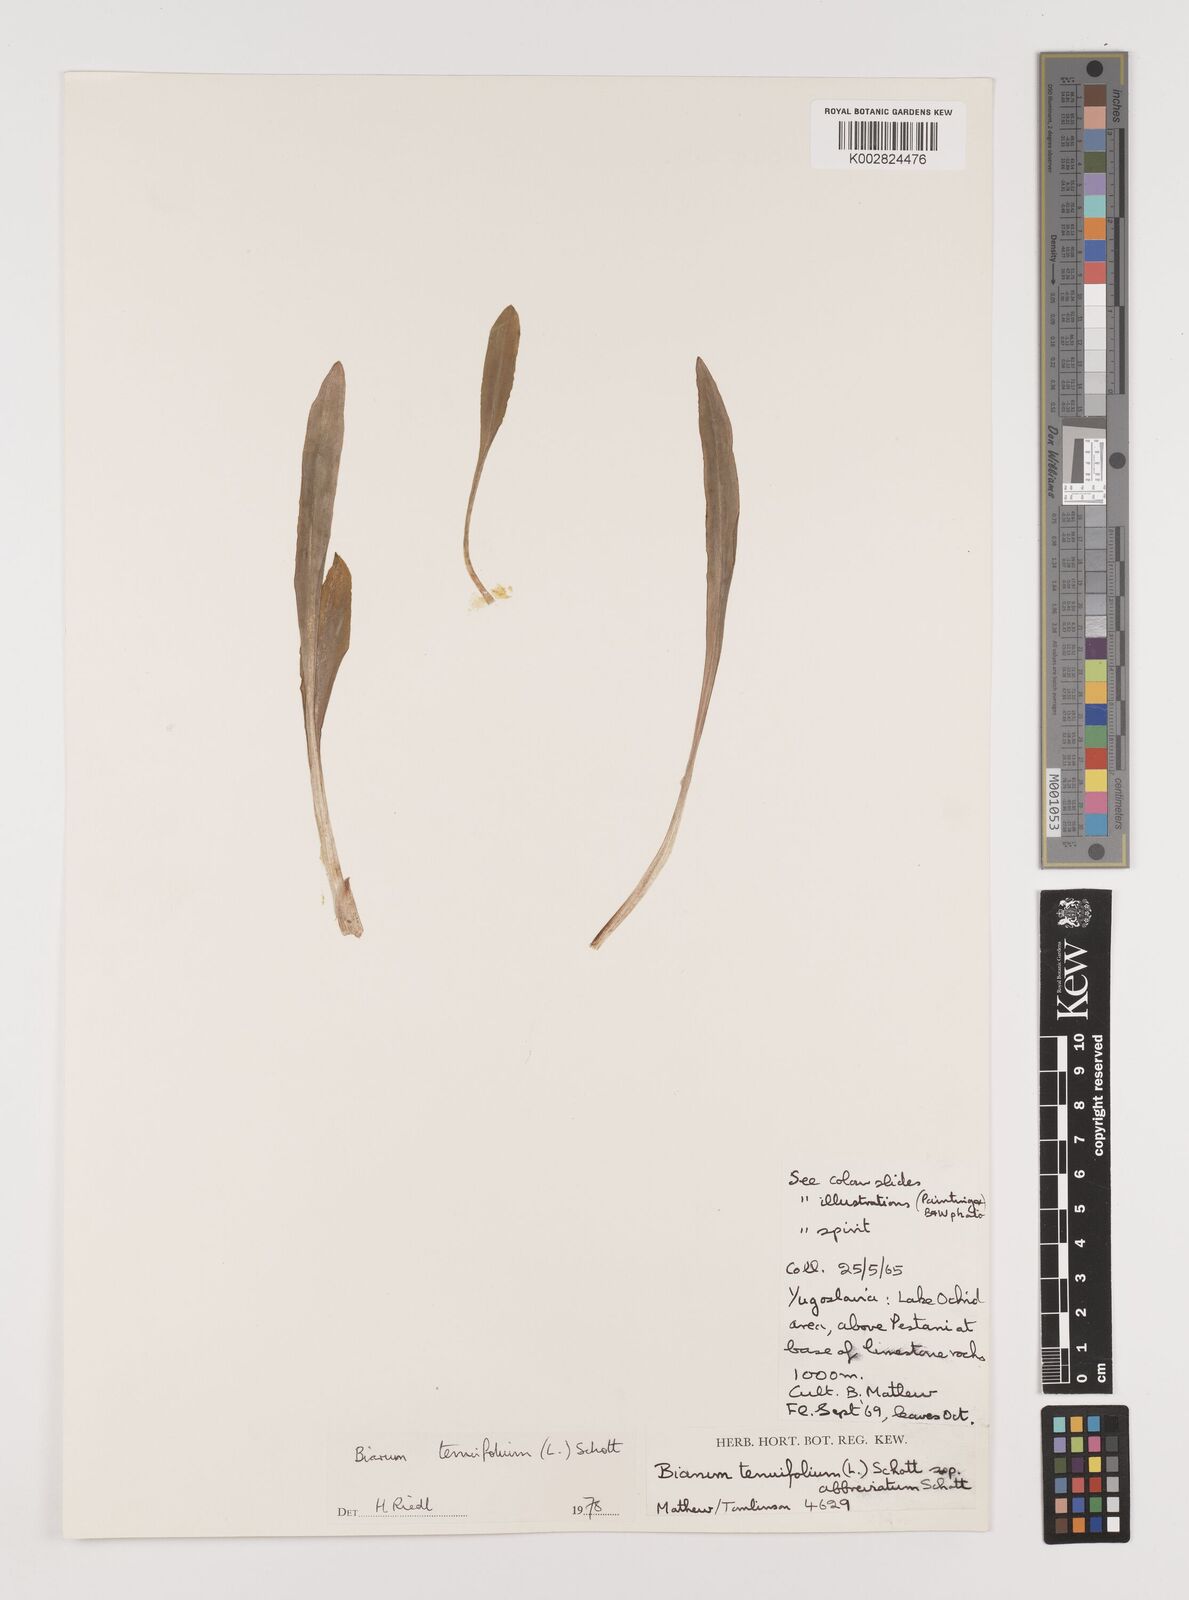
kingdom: Plantae
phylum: Tracheophyta
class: Liliopsida
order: Alismatales
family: Araceae
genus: Biarum
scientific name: Biarum tenuifolium
